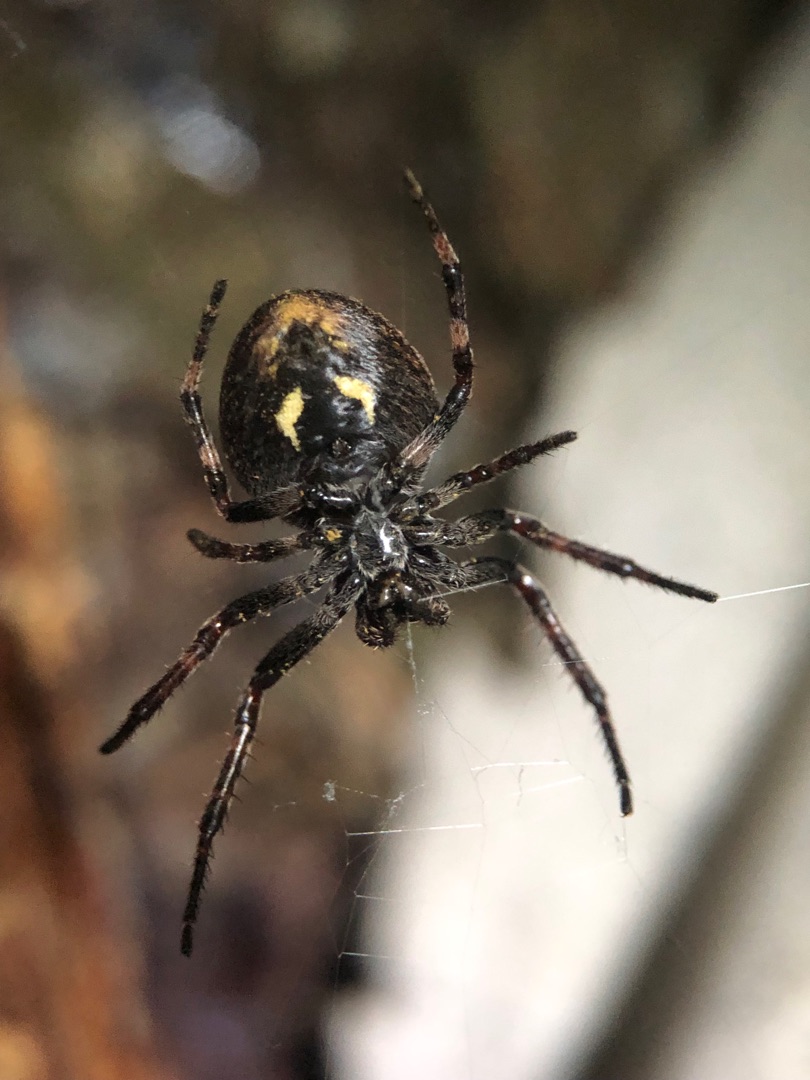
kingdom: Animalia
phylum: Arthropoda
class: Arachnida
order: Araneae
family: Araneidae
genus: Nuctenea
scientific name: Nuctenea umbratica
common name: Flad hjulspinder
